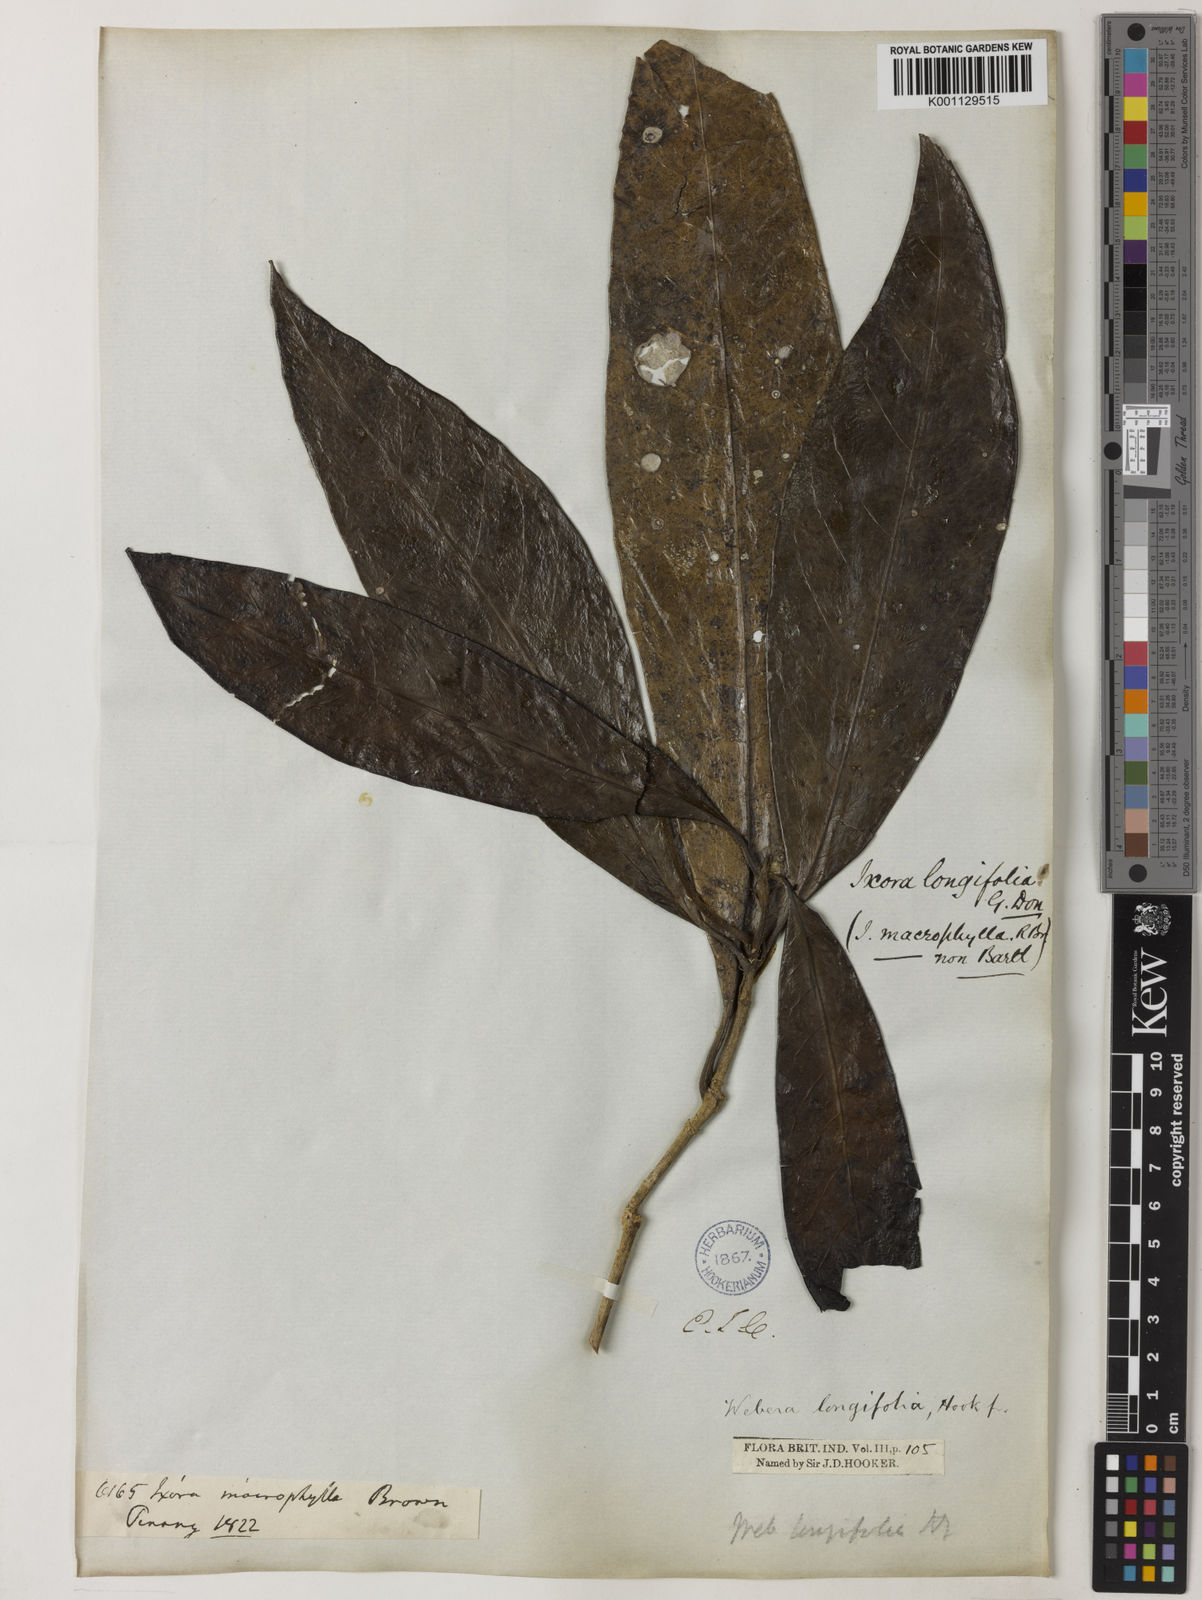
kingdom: Plantae
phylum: Tracheophyta
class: Magnoliopsida
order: Gentianales
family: Rubiaceae
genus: Tarenna
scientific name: Tarenna longifolia
